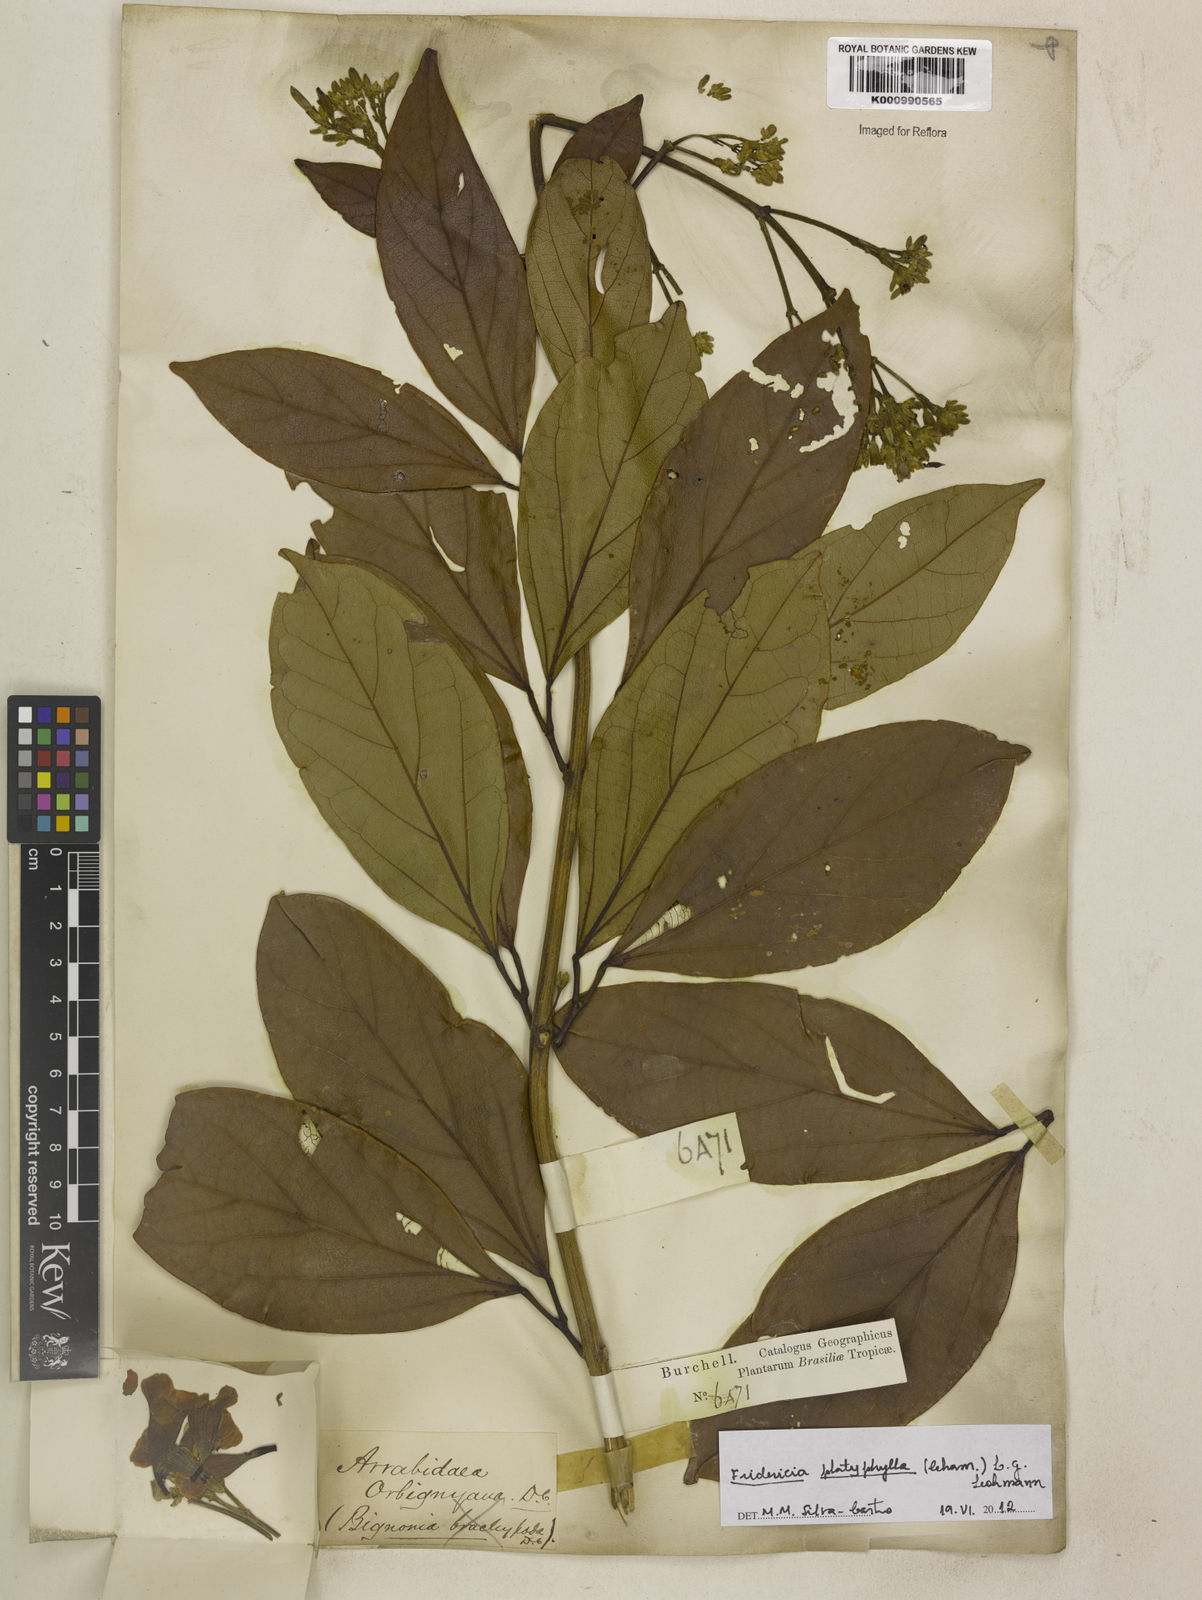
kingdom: Plantae
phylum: Tracheophyta
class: Magnoliopsida
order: Lamiales
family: Bignoniaceae
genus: Fridericia
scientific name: Fridericia platyphylla
